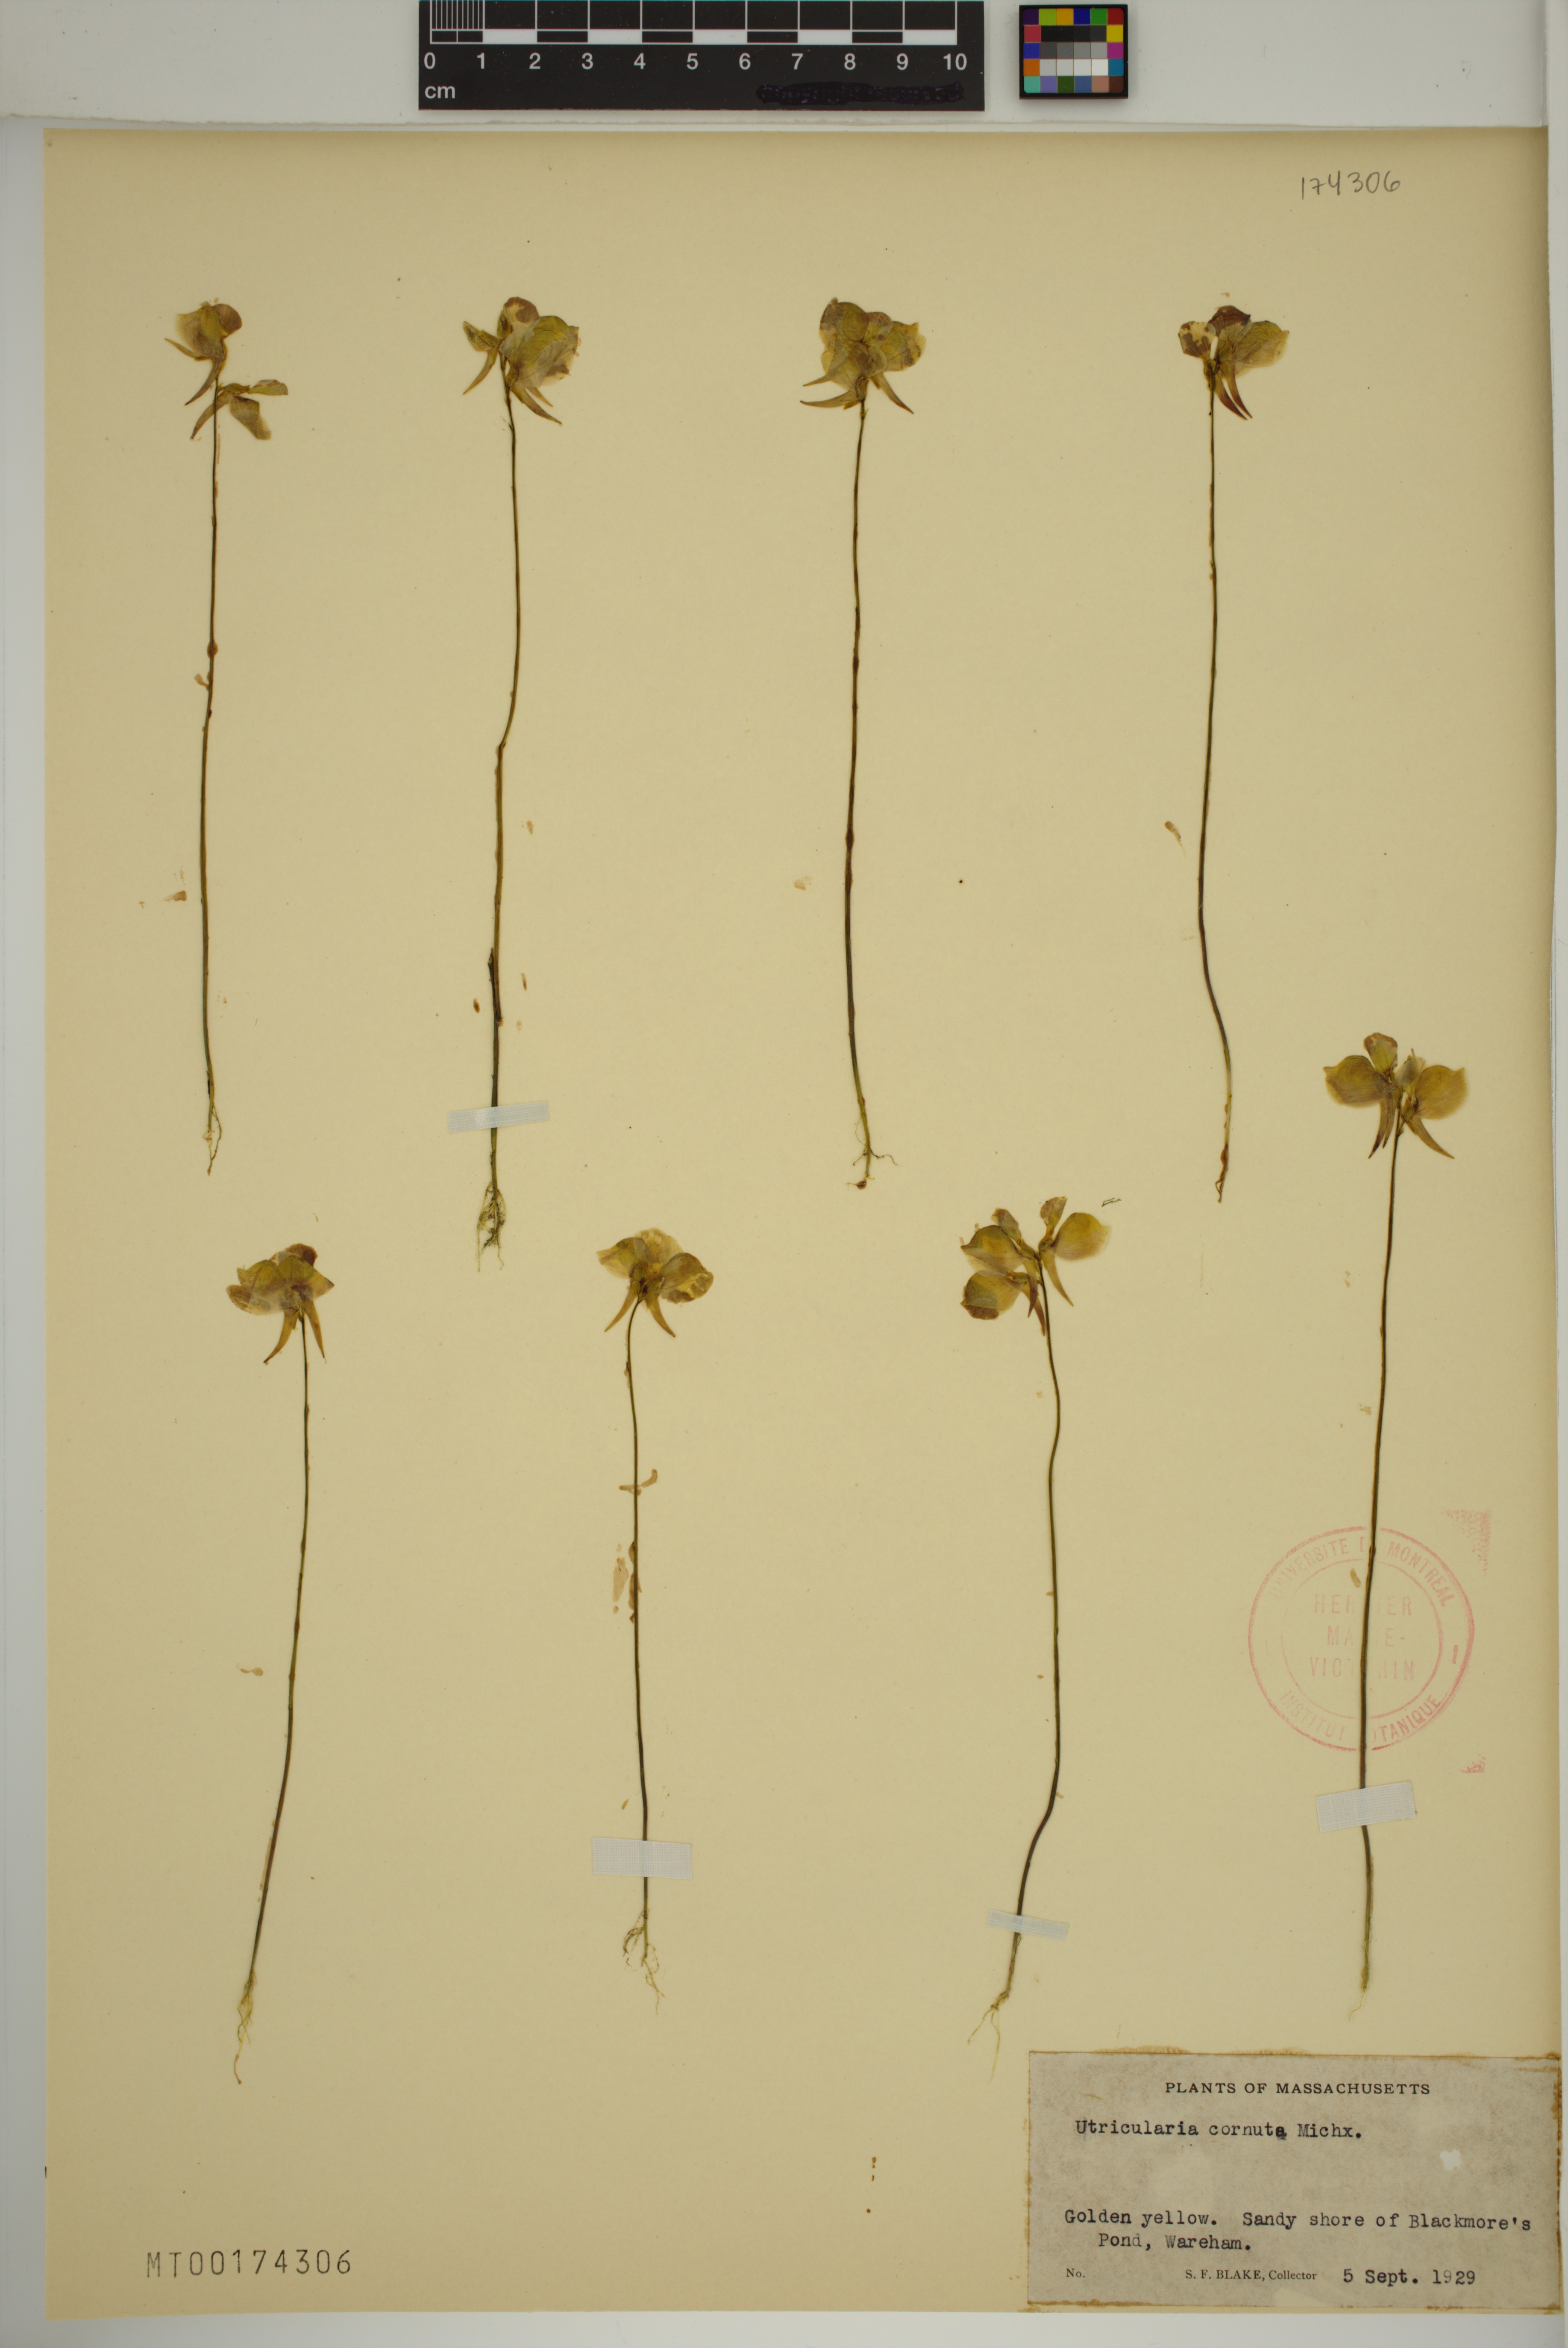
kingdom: Plantae
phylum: Tracheophyta
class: Magnoliopsida
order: Lamiales
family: Lentibulariaceae
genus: Utricularia
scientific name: Utricularia cornuta
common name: Horned bladderwort
